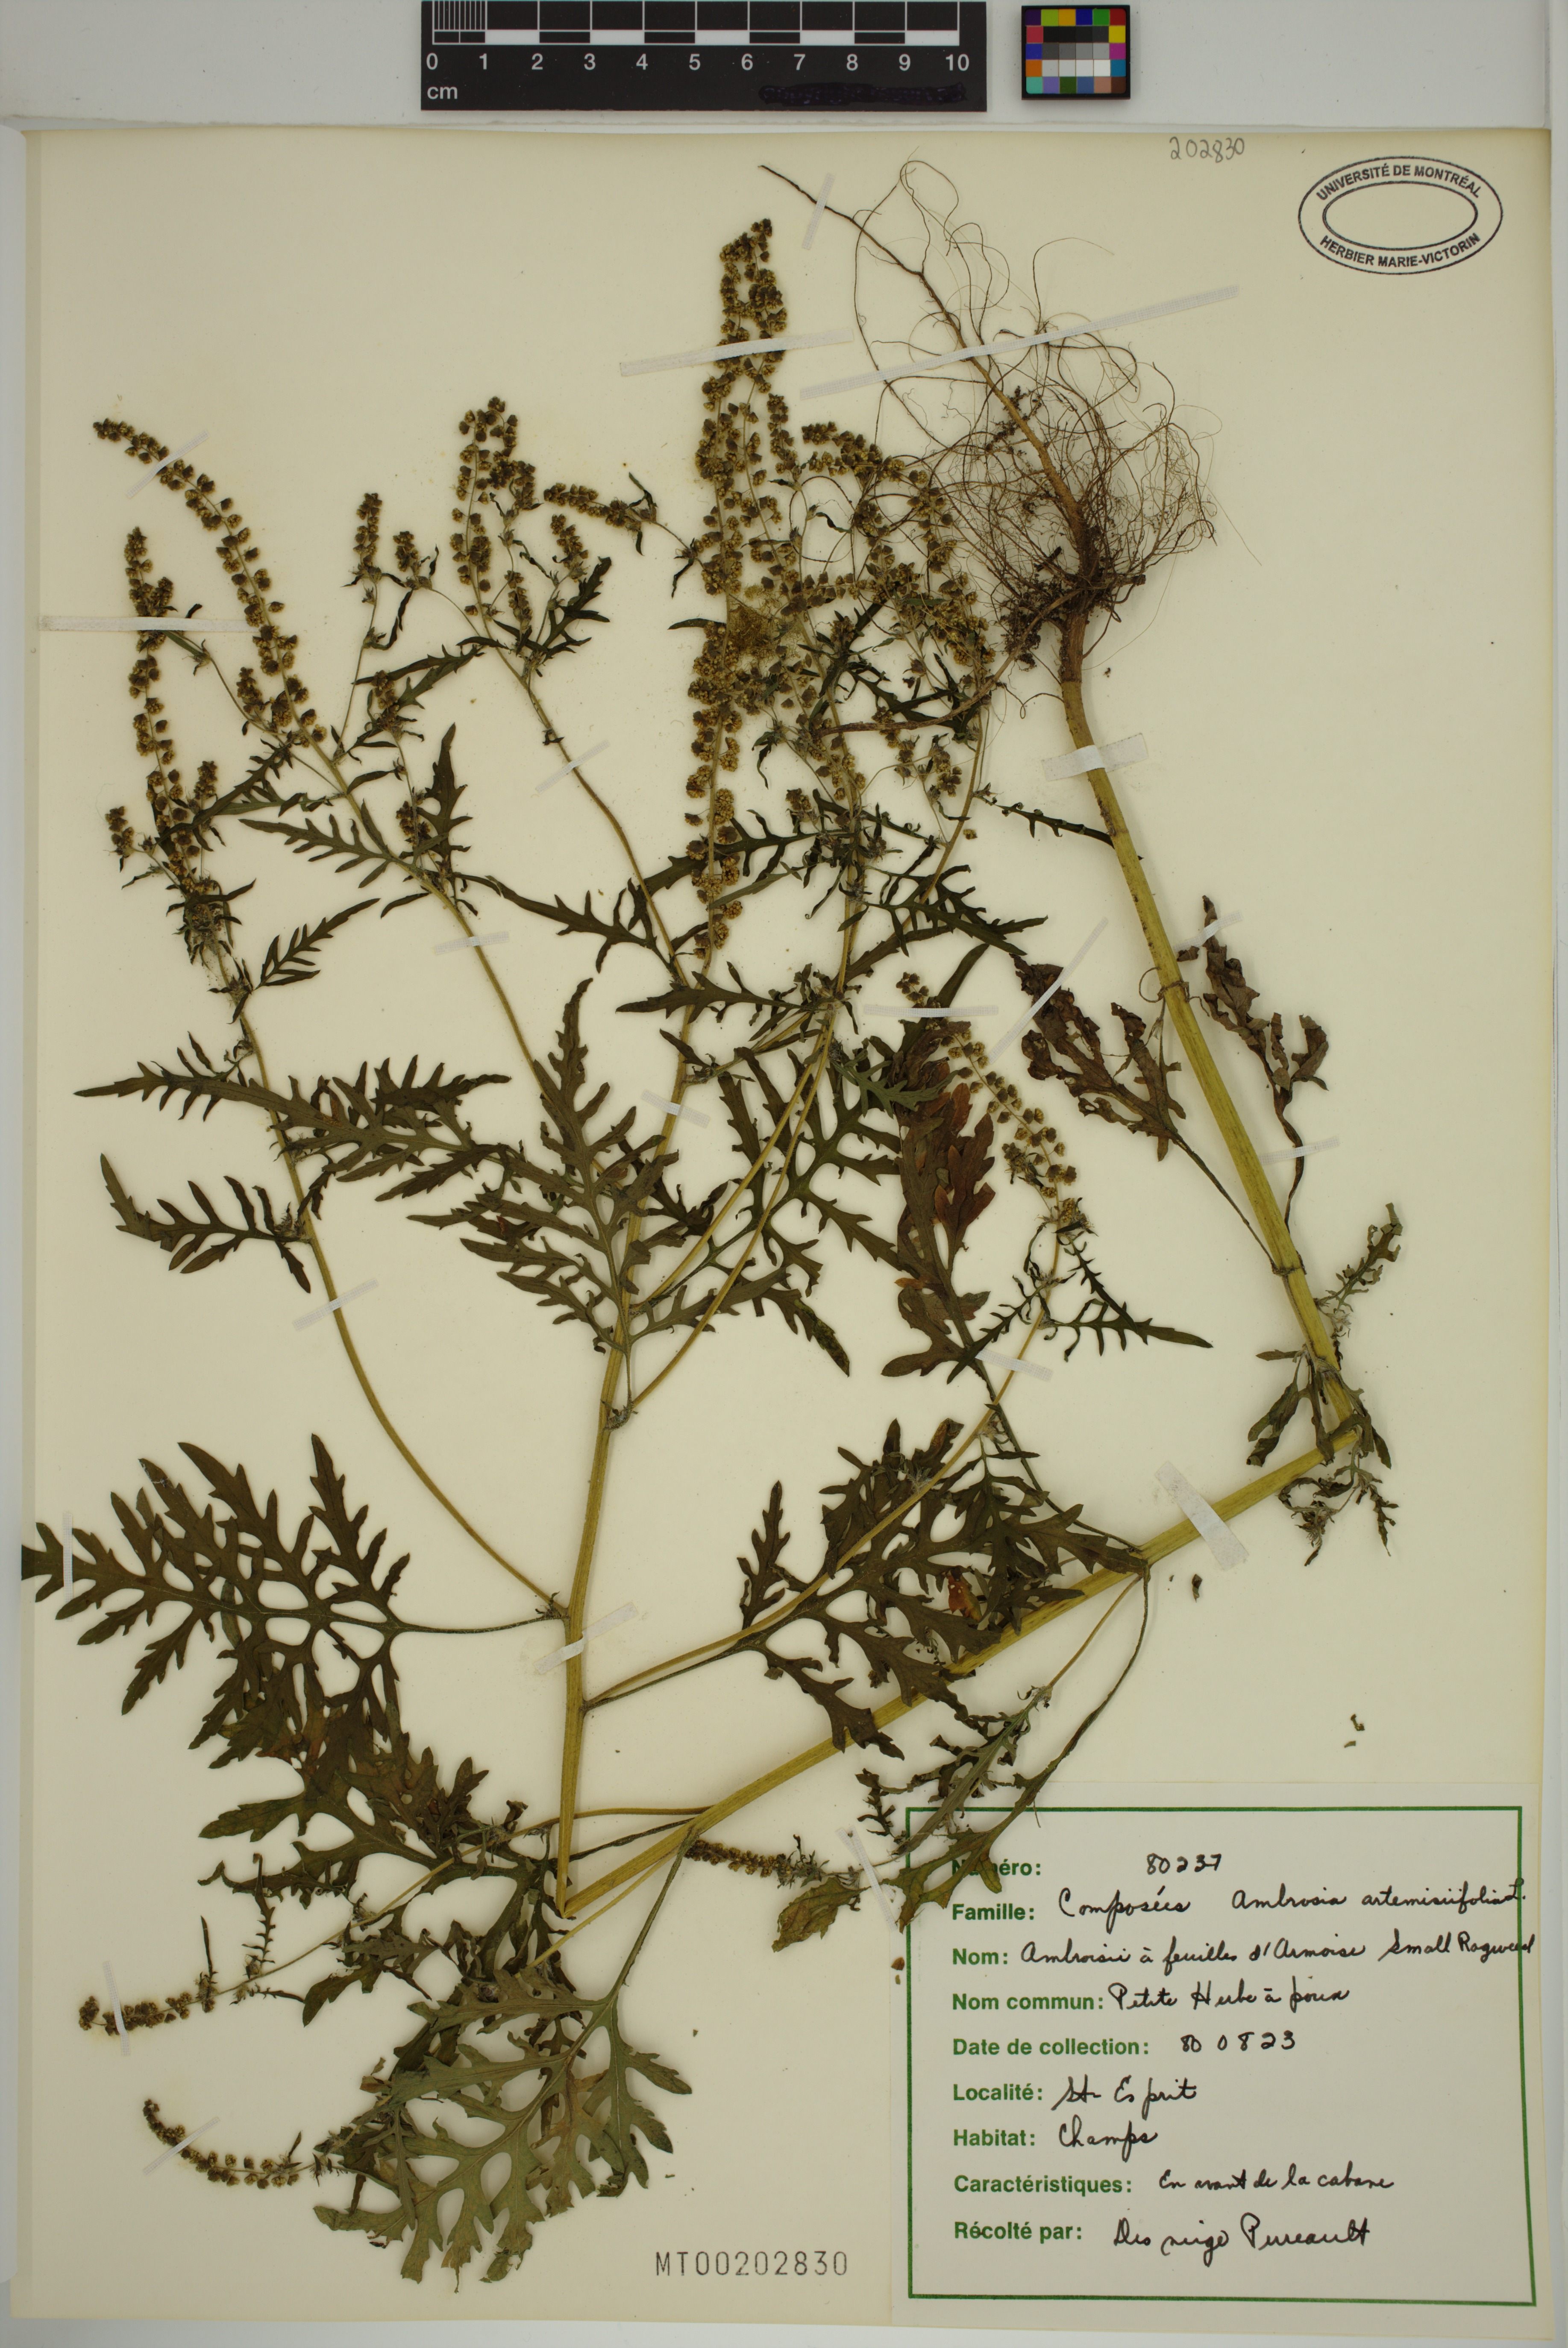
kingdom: Plantae
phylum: Tracheophyta
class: Magnoliopsida
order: Asterales
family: Asteraceae
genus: Ambrosia
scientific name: Ambrosia artemisiifolia
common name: Annual ragweed
